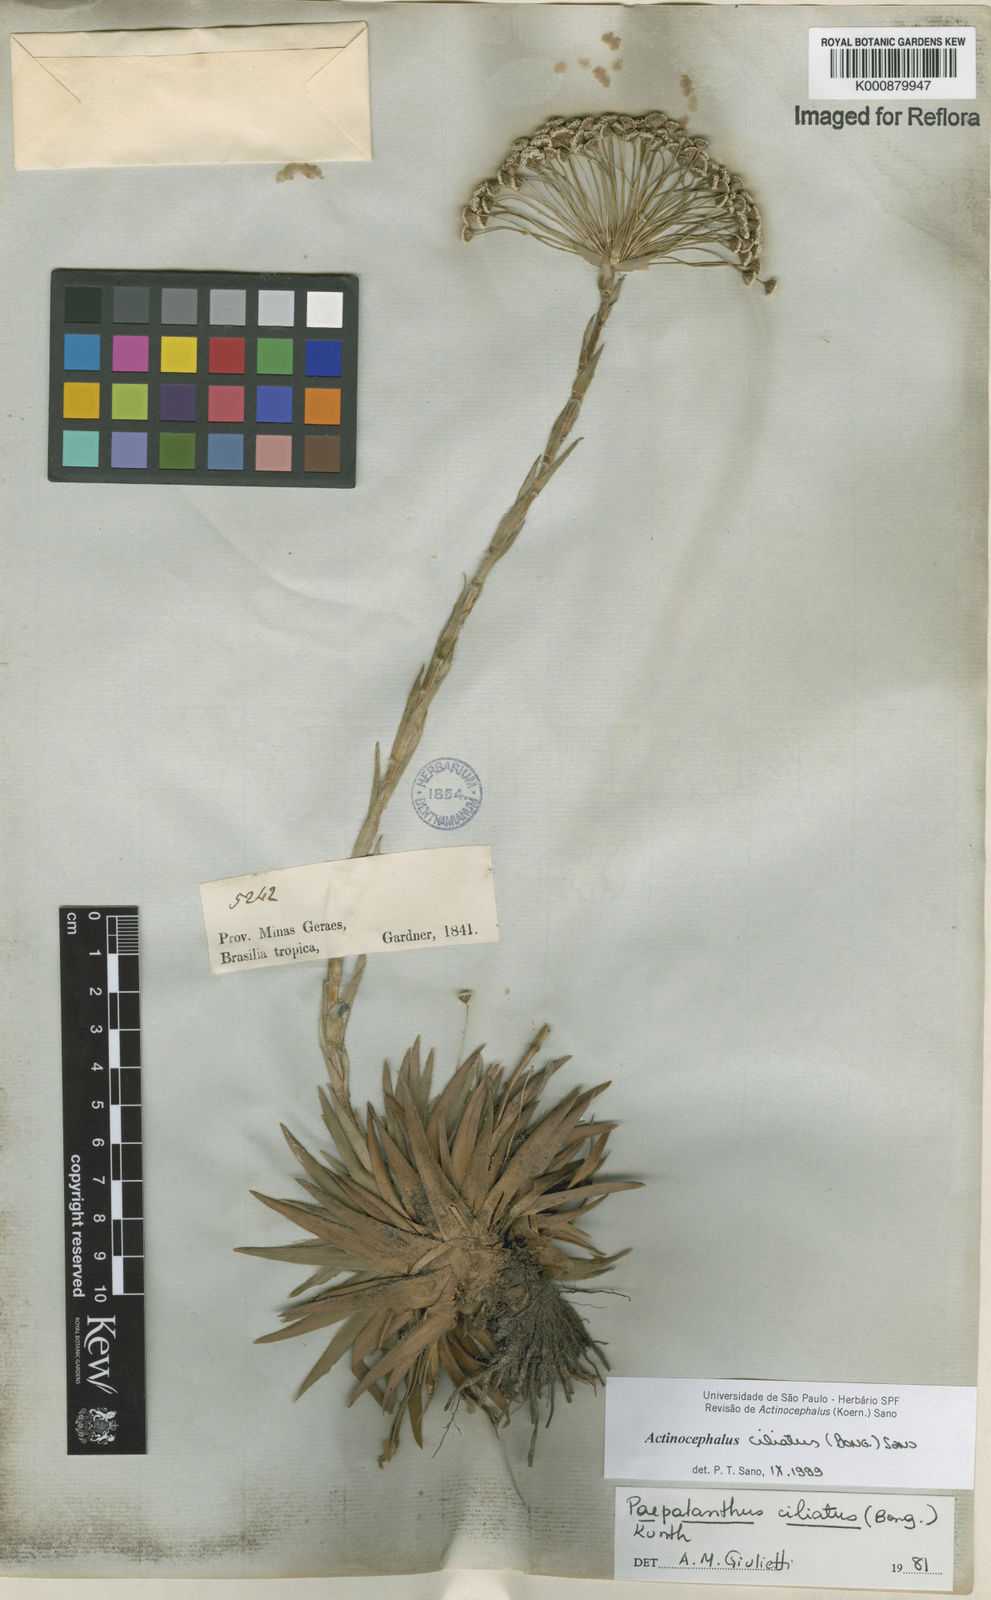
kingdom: Plantae
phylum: Tracheophyta
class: Liliopsida
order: Poales
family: Eriocaulaceae
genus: Paepalanthus
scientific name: Paepalanthus ciliatus
